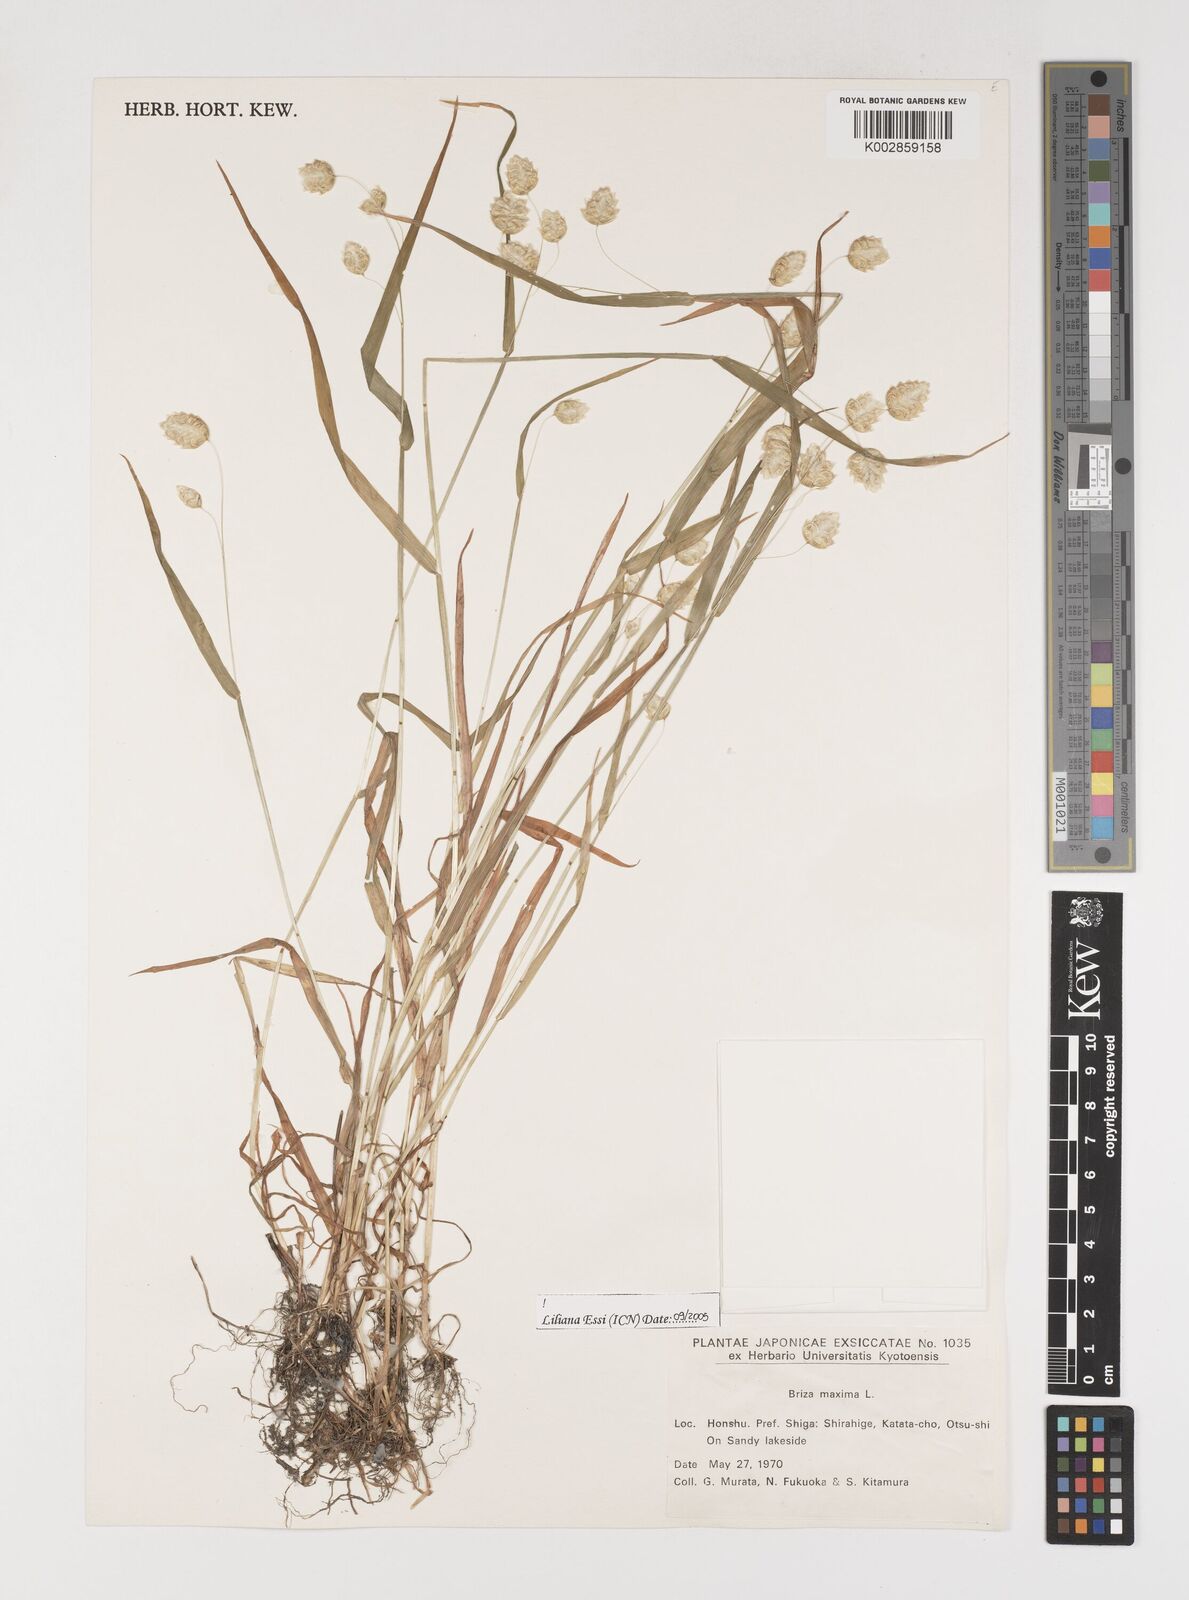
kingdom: Plantae
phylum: Tracheophyta
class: Liliopsida
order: Poales
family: Poaceae
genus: Briza
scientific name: Briza maxima
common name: Big quakinggrass
